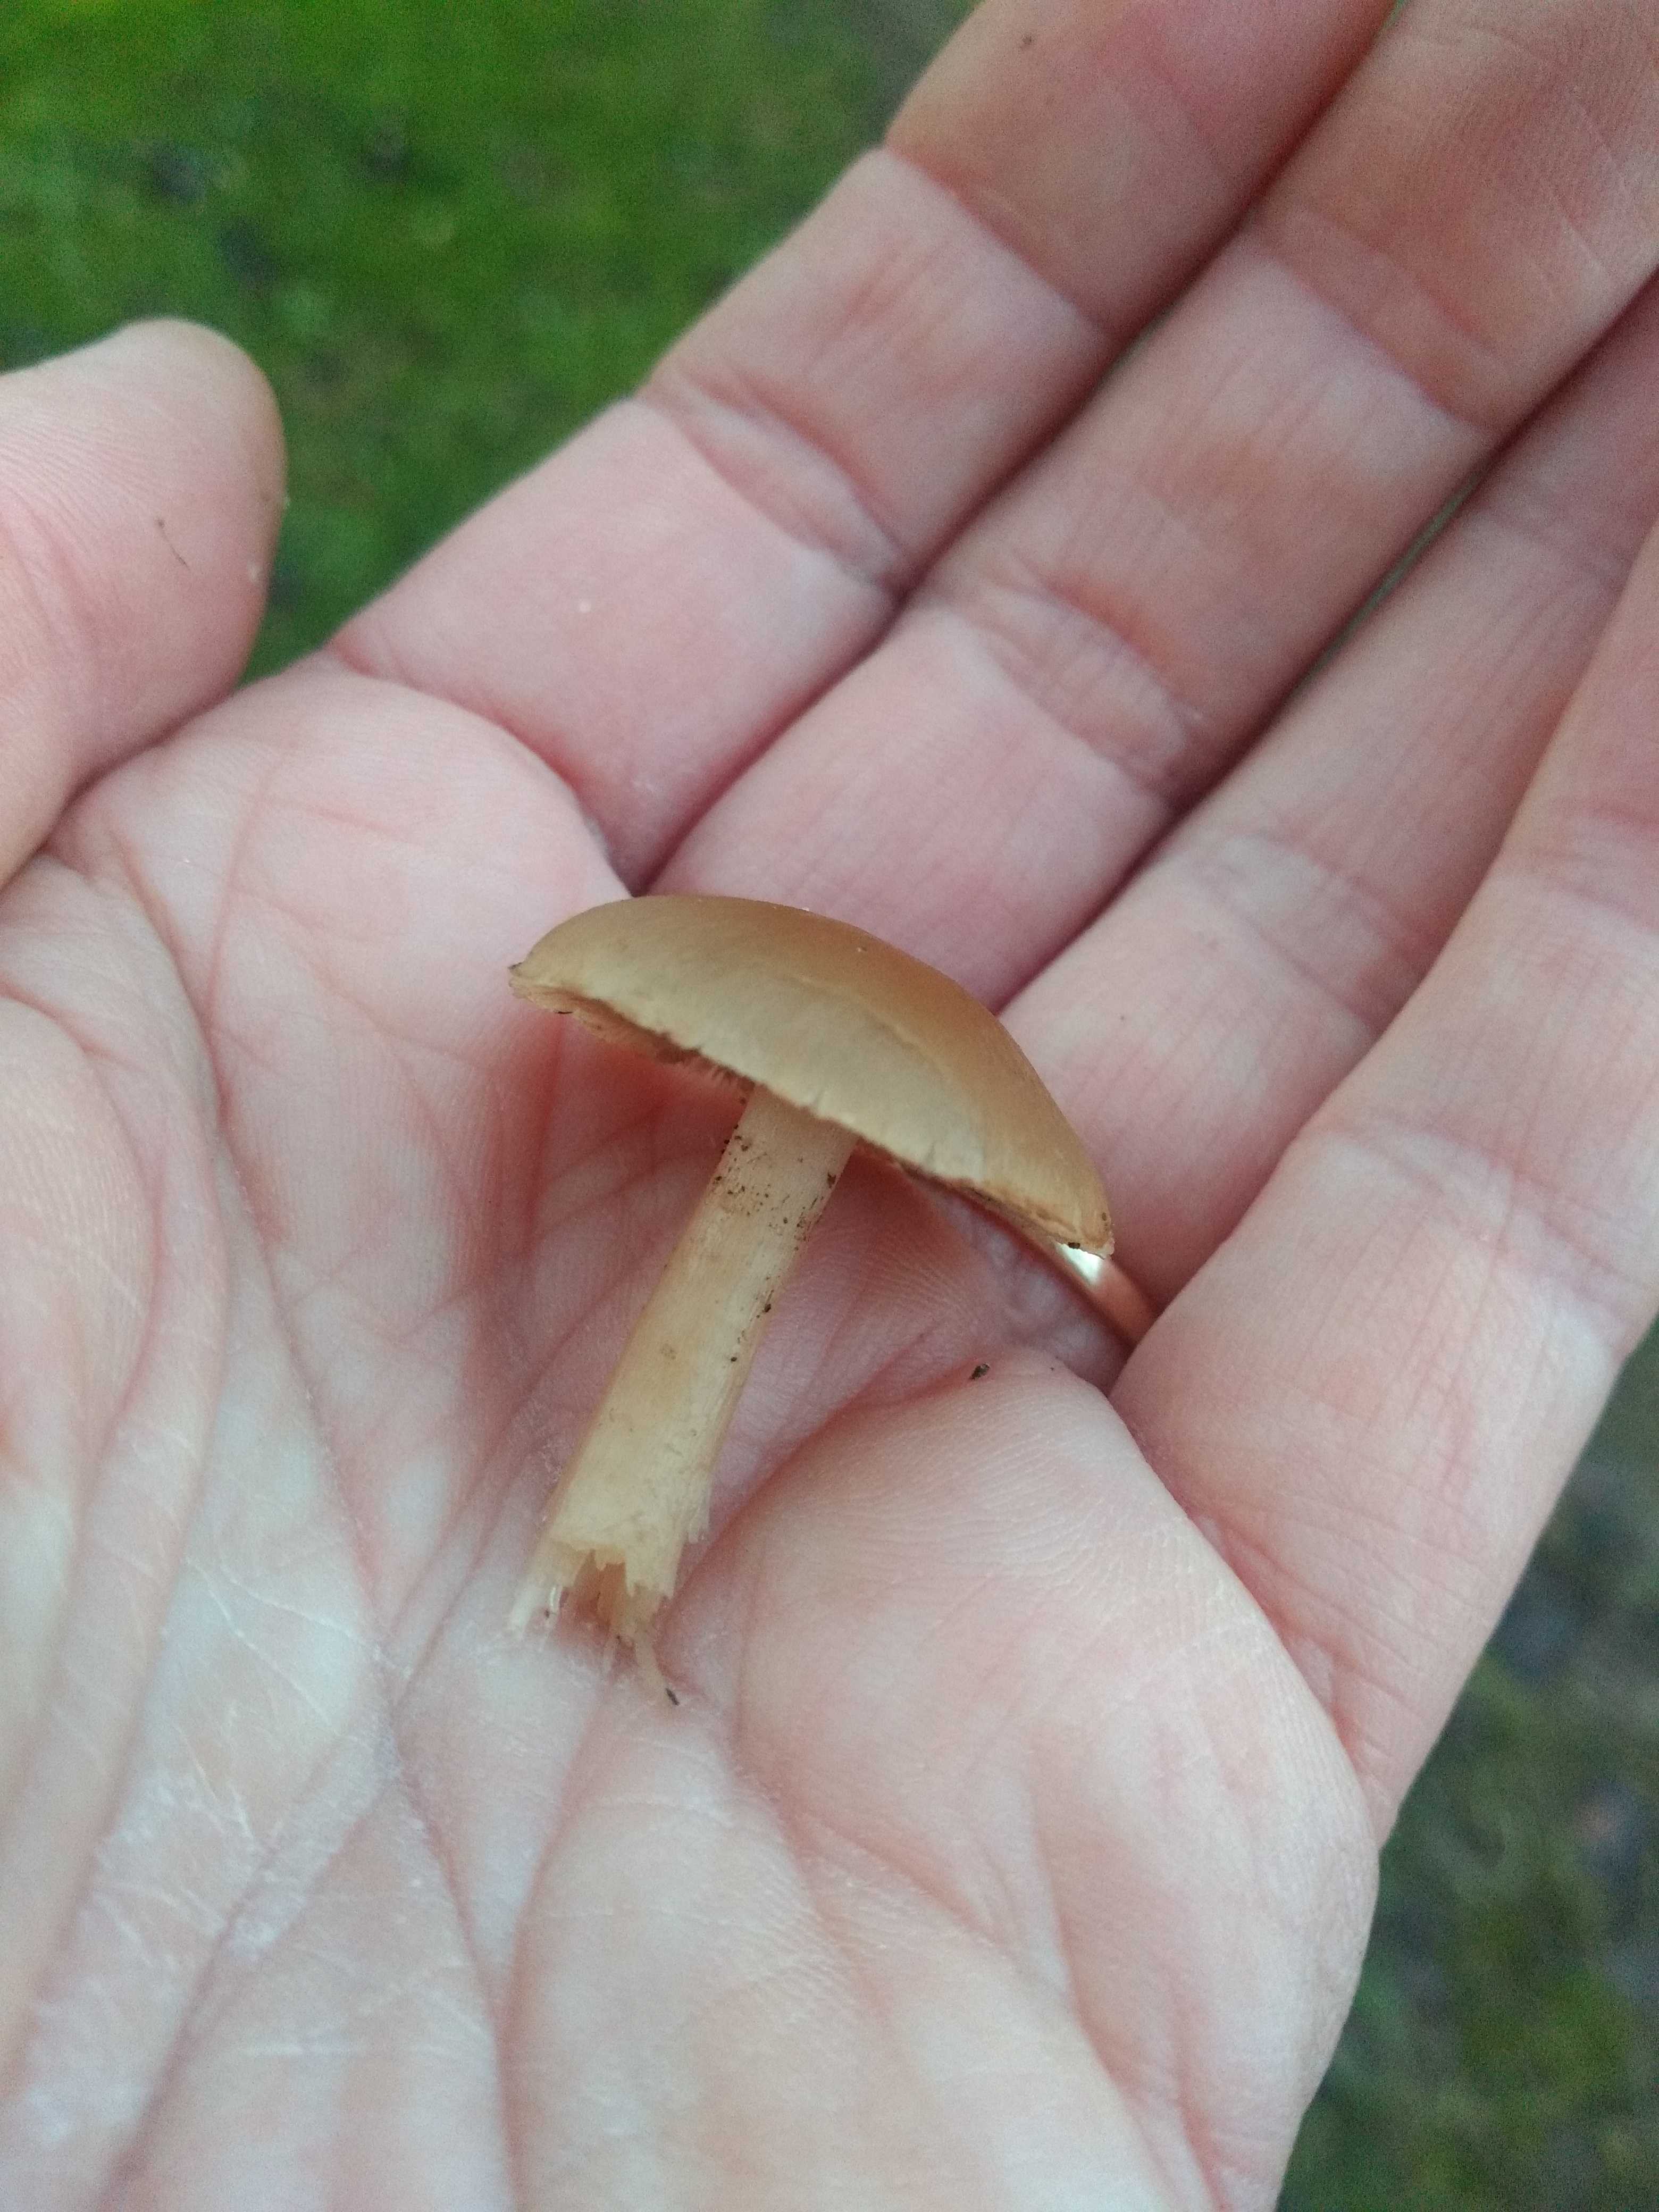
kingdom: Fungi
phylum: Basidiomycota
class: Agaricomycetes
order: Agaricales
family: Psathyrellaceae
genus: Psathyrella
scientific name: Psathyrella
